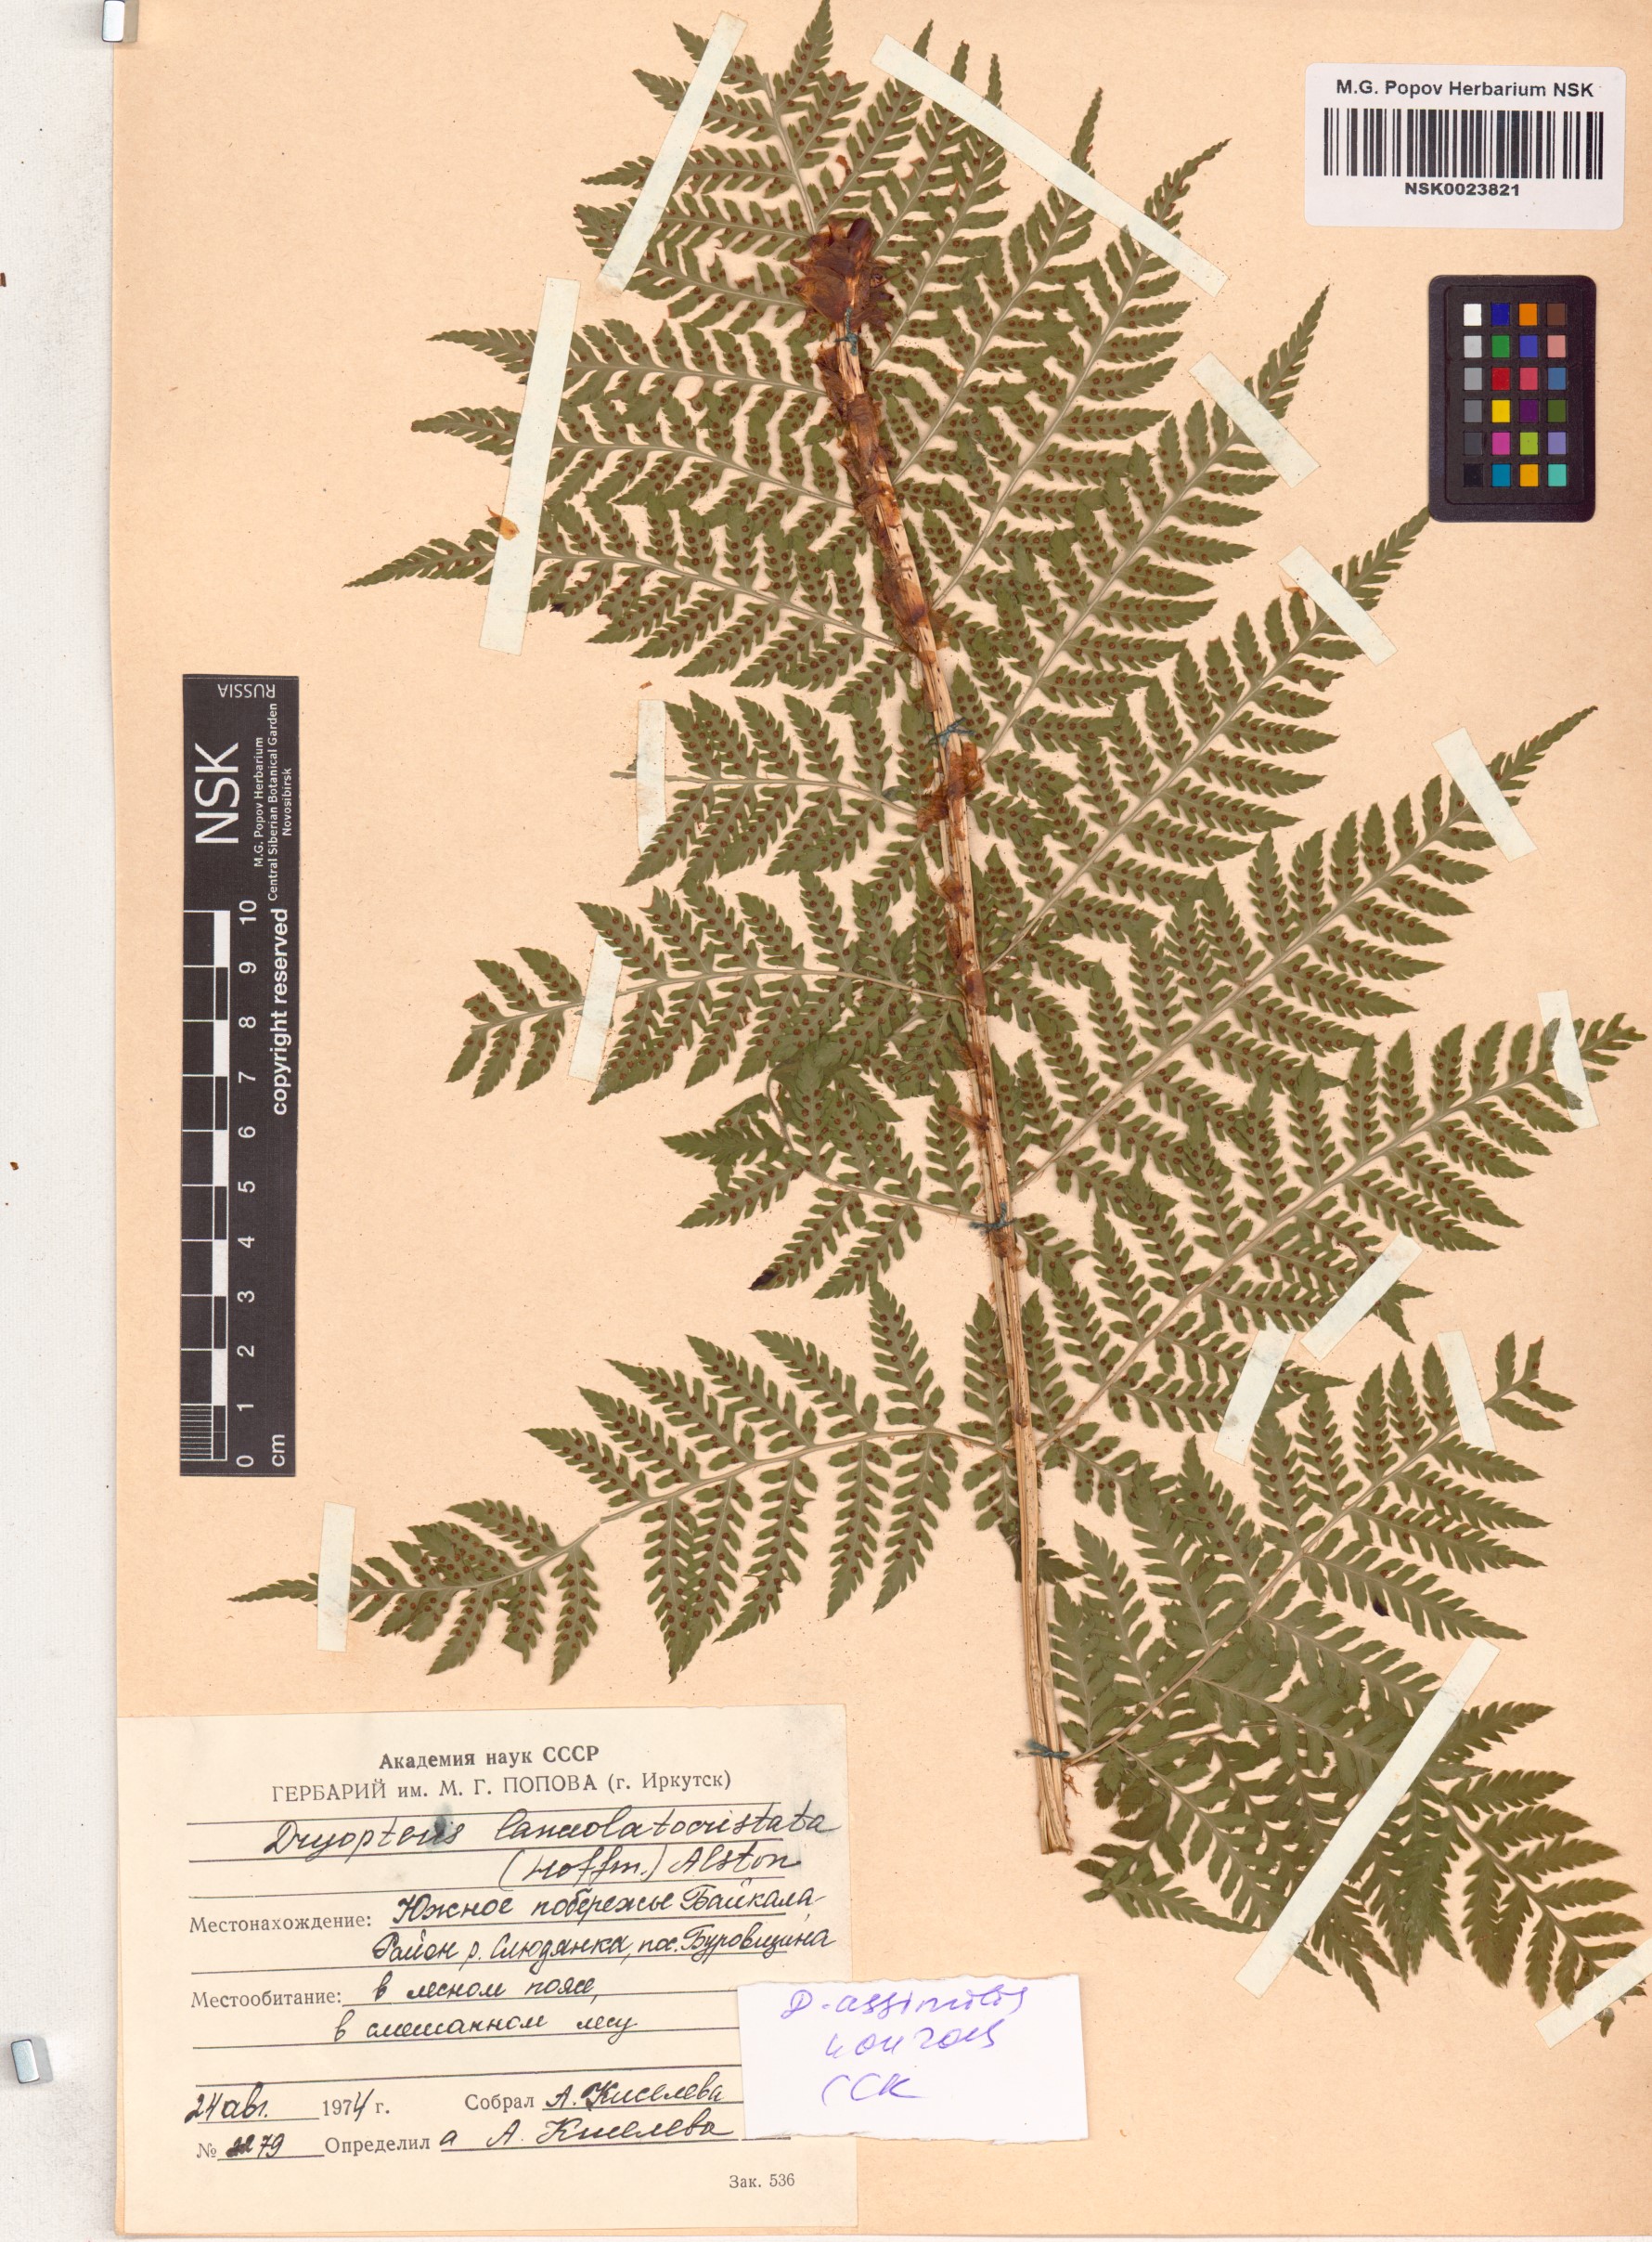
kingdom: Plantae
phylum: Tracheophyta
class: Polypodiopsida
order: Polypodiales
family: Dryopteridaceae
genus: Dryopteris
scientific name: Dryopteris expansa
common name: Northern buckler fern
